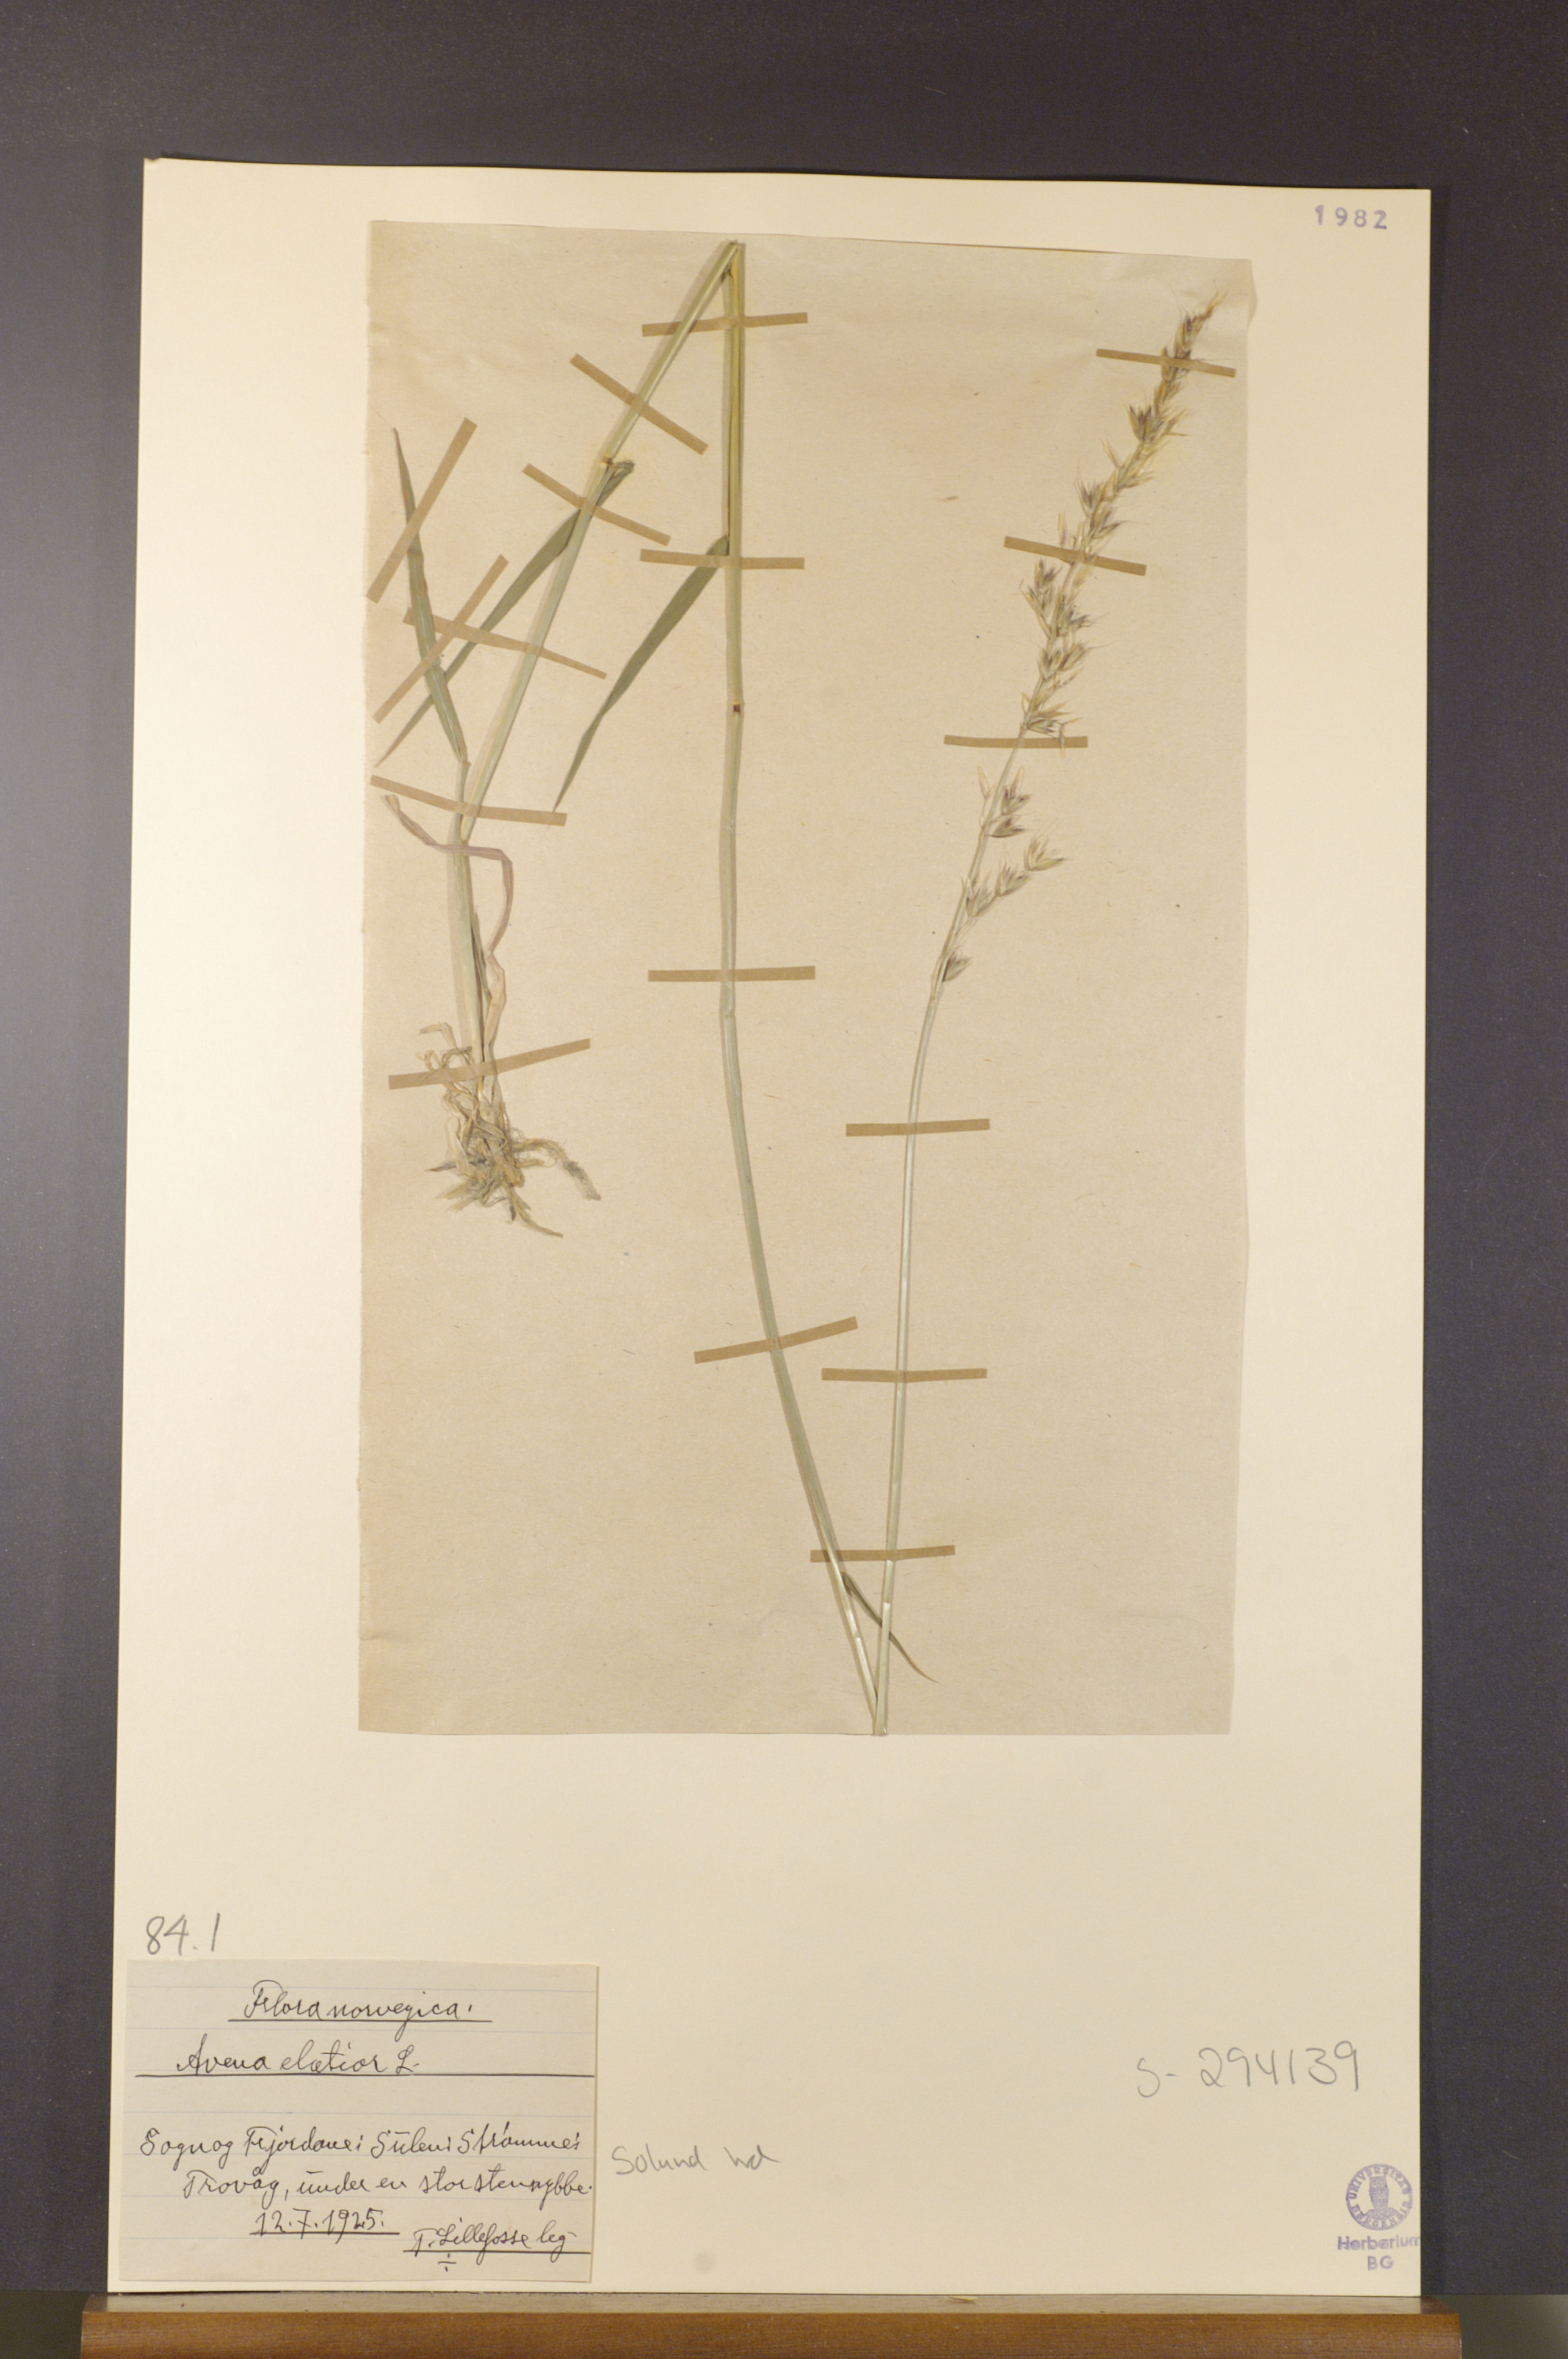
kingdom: Plantae
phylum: Tracheophyta
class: Liliopsida
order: Poales
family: Poaceae
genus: Arrhenatherum
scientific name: Arrhenatherum elatius
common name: Tall oatgrass
